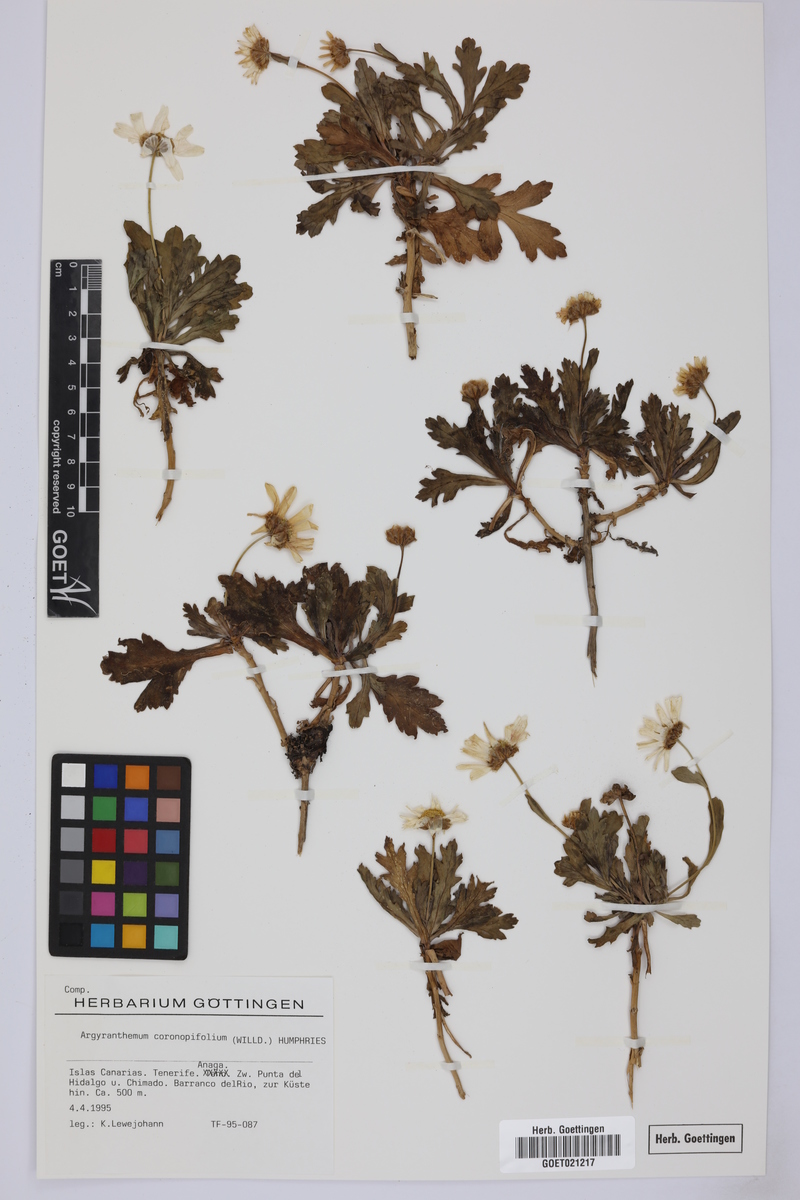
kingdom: Plantae
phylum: Tracheophyta
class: Magnoliopsida
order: Asterales
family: Asteraceae
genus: Argyranthemum
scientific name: Argyranthemum coronopifolium
